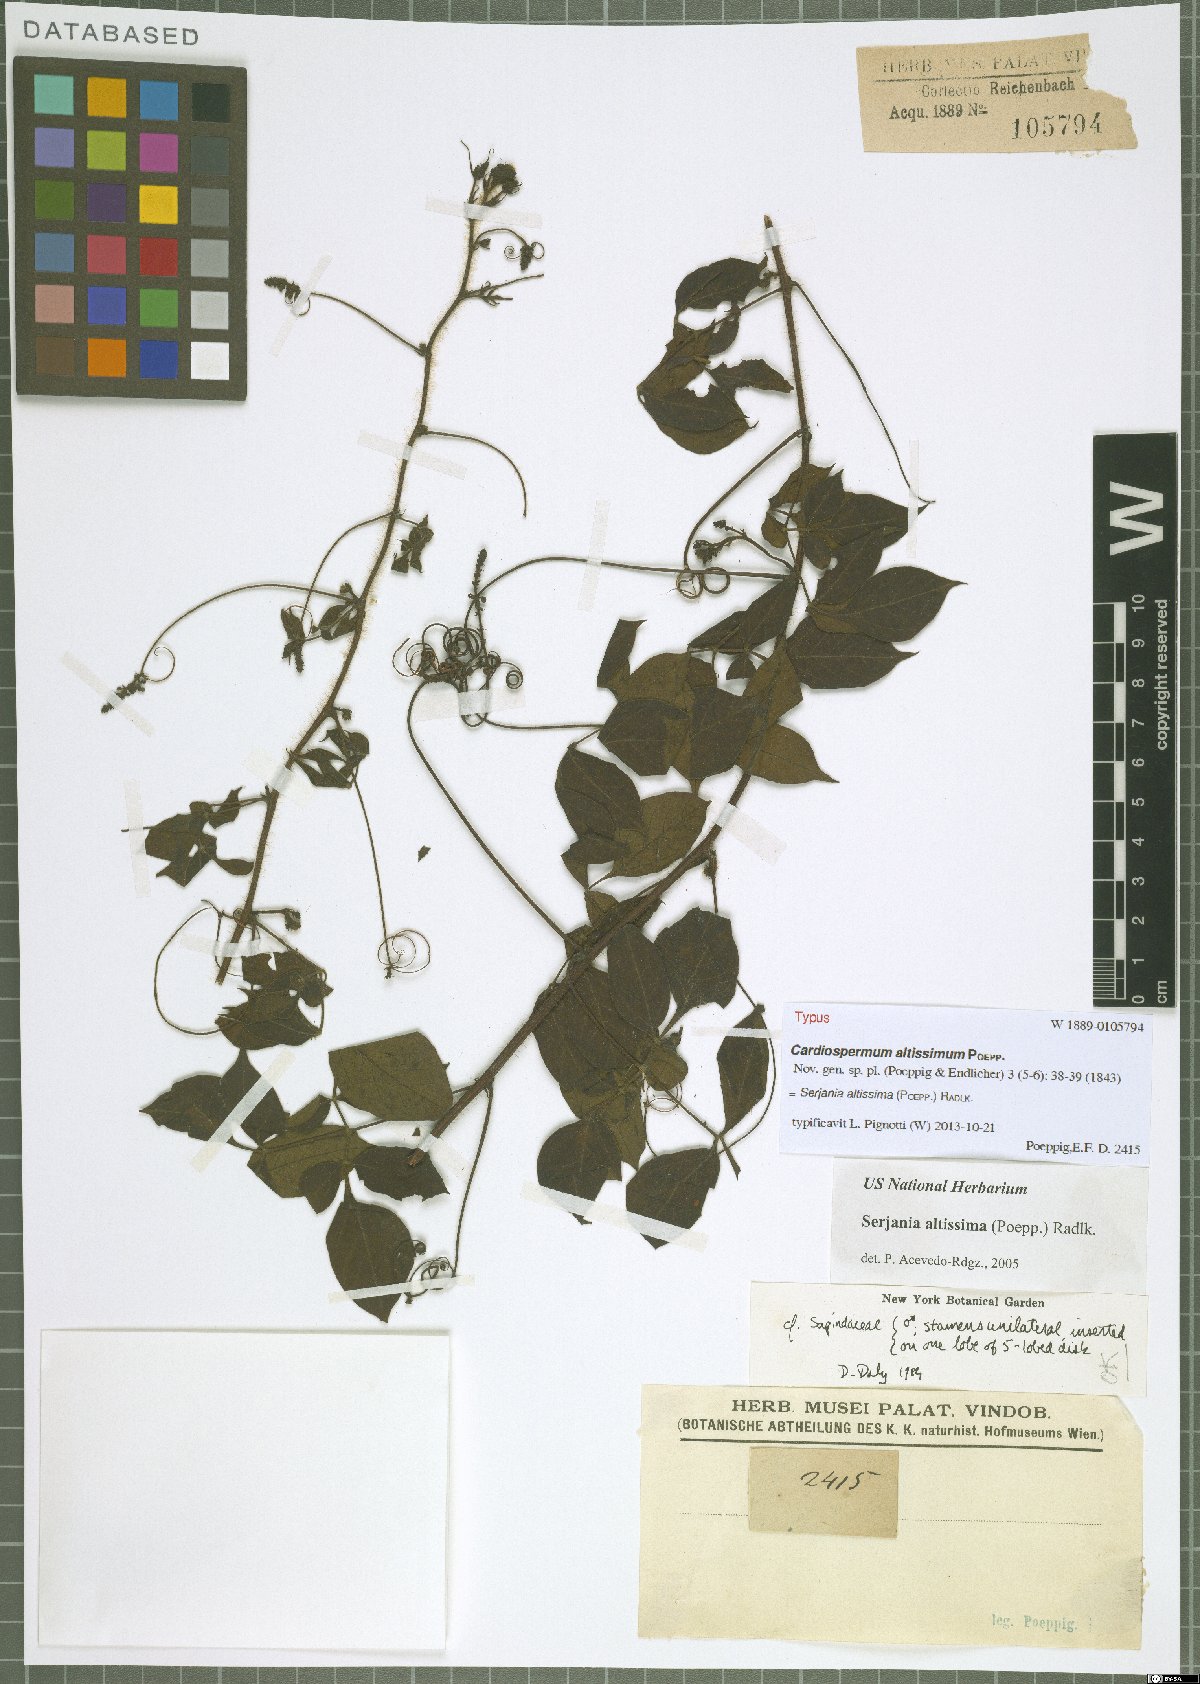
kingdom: Plantae
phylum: Tracheophyta
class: Magnoliopsida
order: Sapindales
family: Sapindaceae
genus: Serjania
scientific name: Serjania altissima
